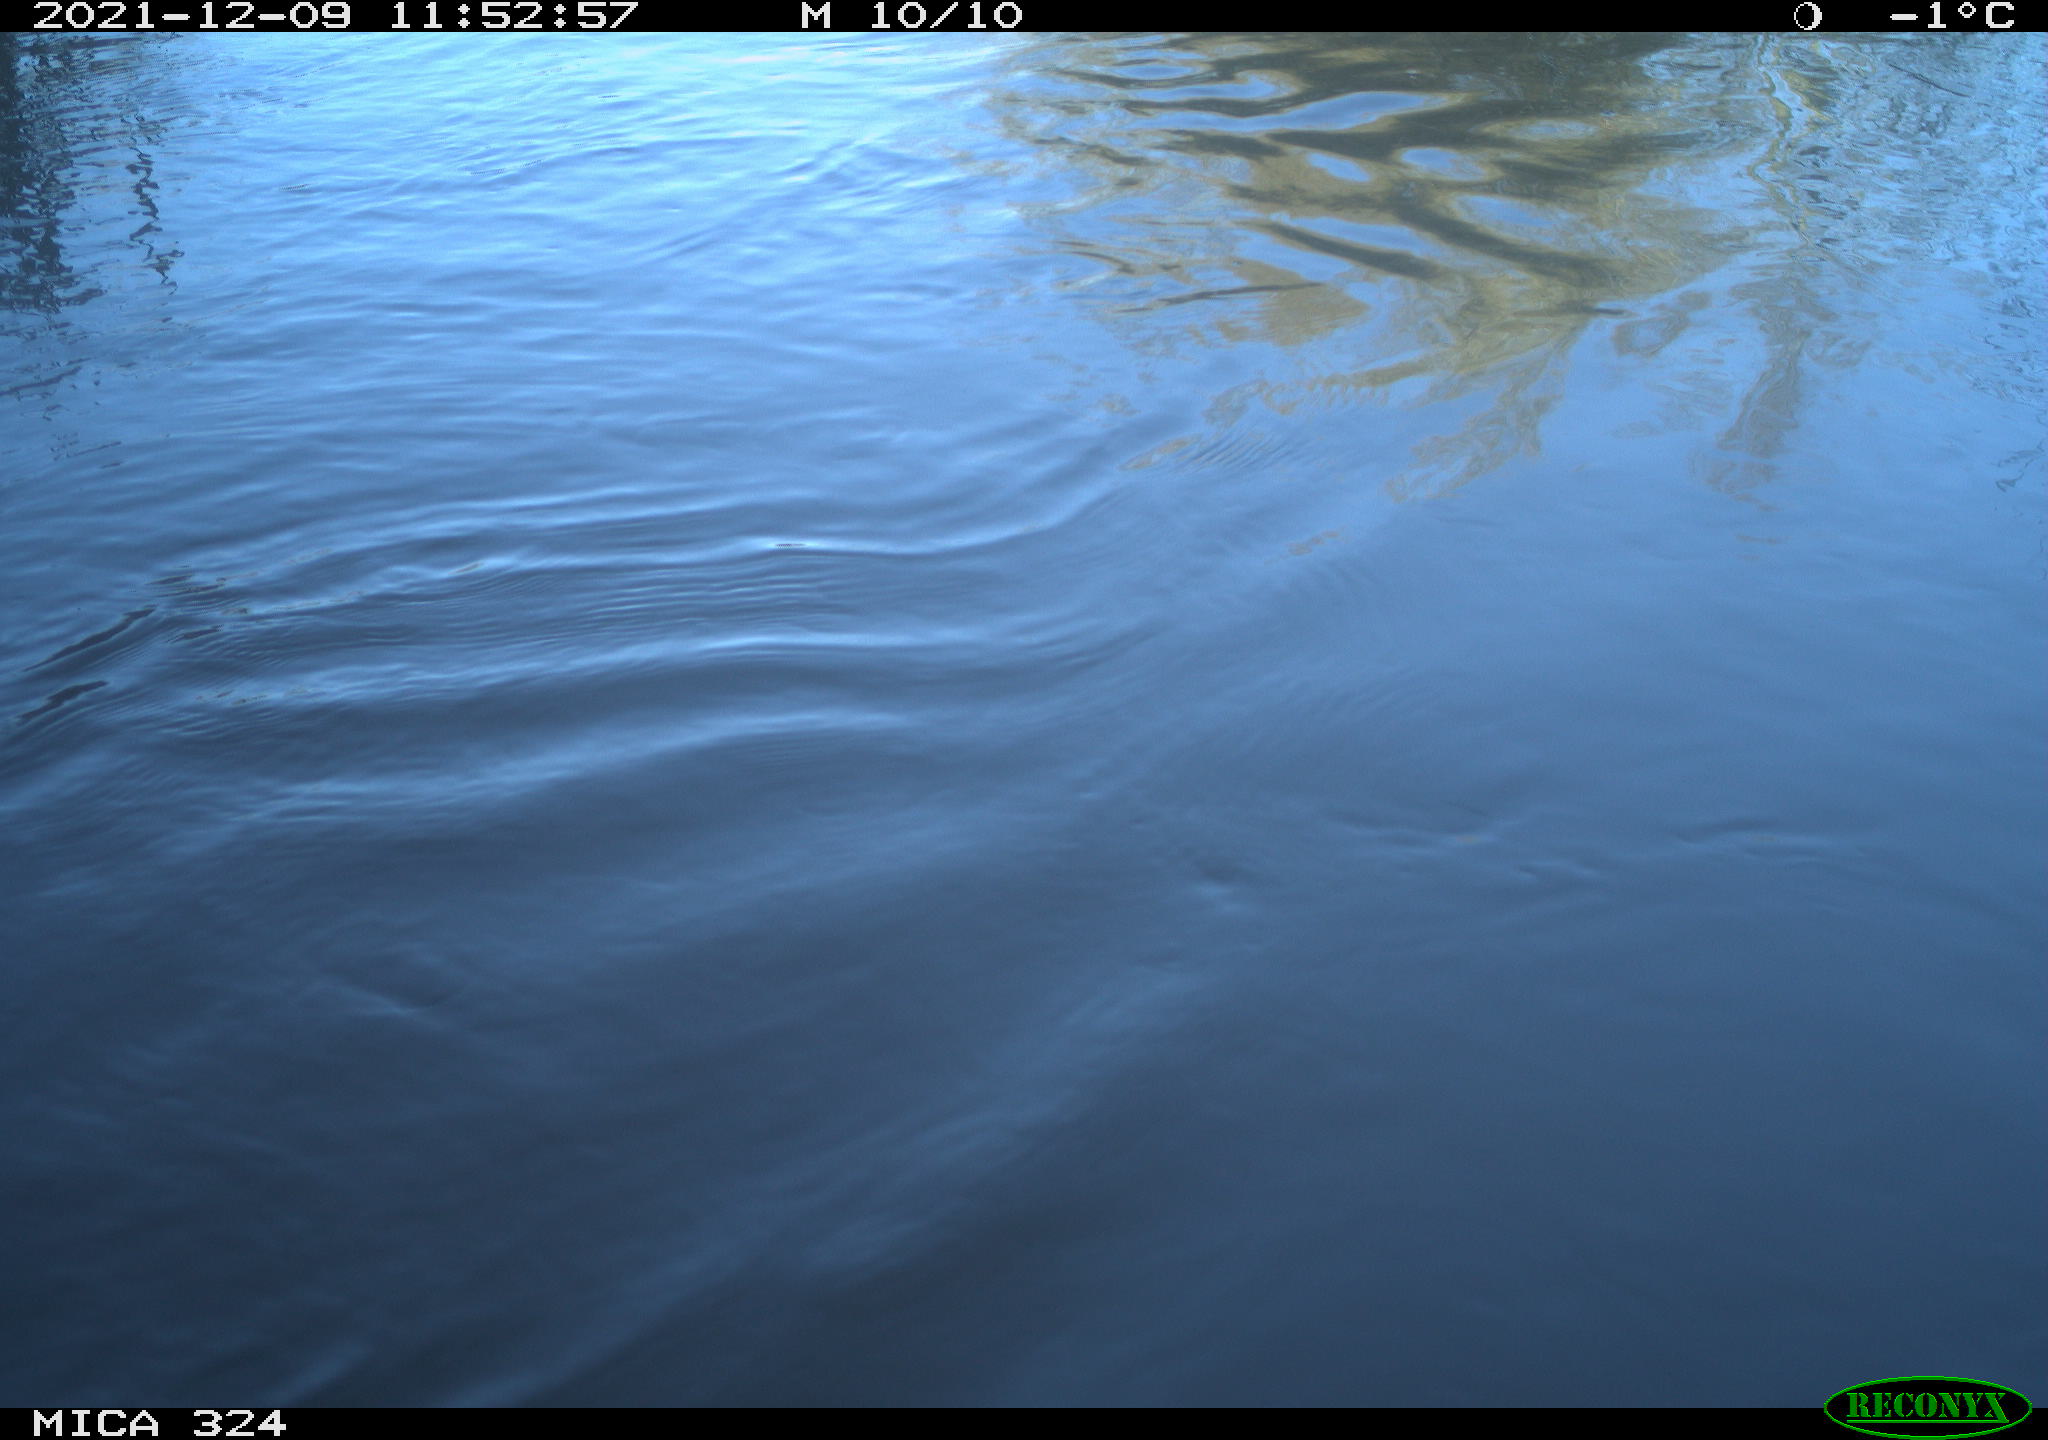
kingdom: Animalia
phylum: Chordata
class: Mammalia
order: Rodentia
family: Cricetidae
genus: Ondatra
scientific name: Ondatra zibethicus
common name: Muskrat
